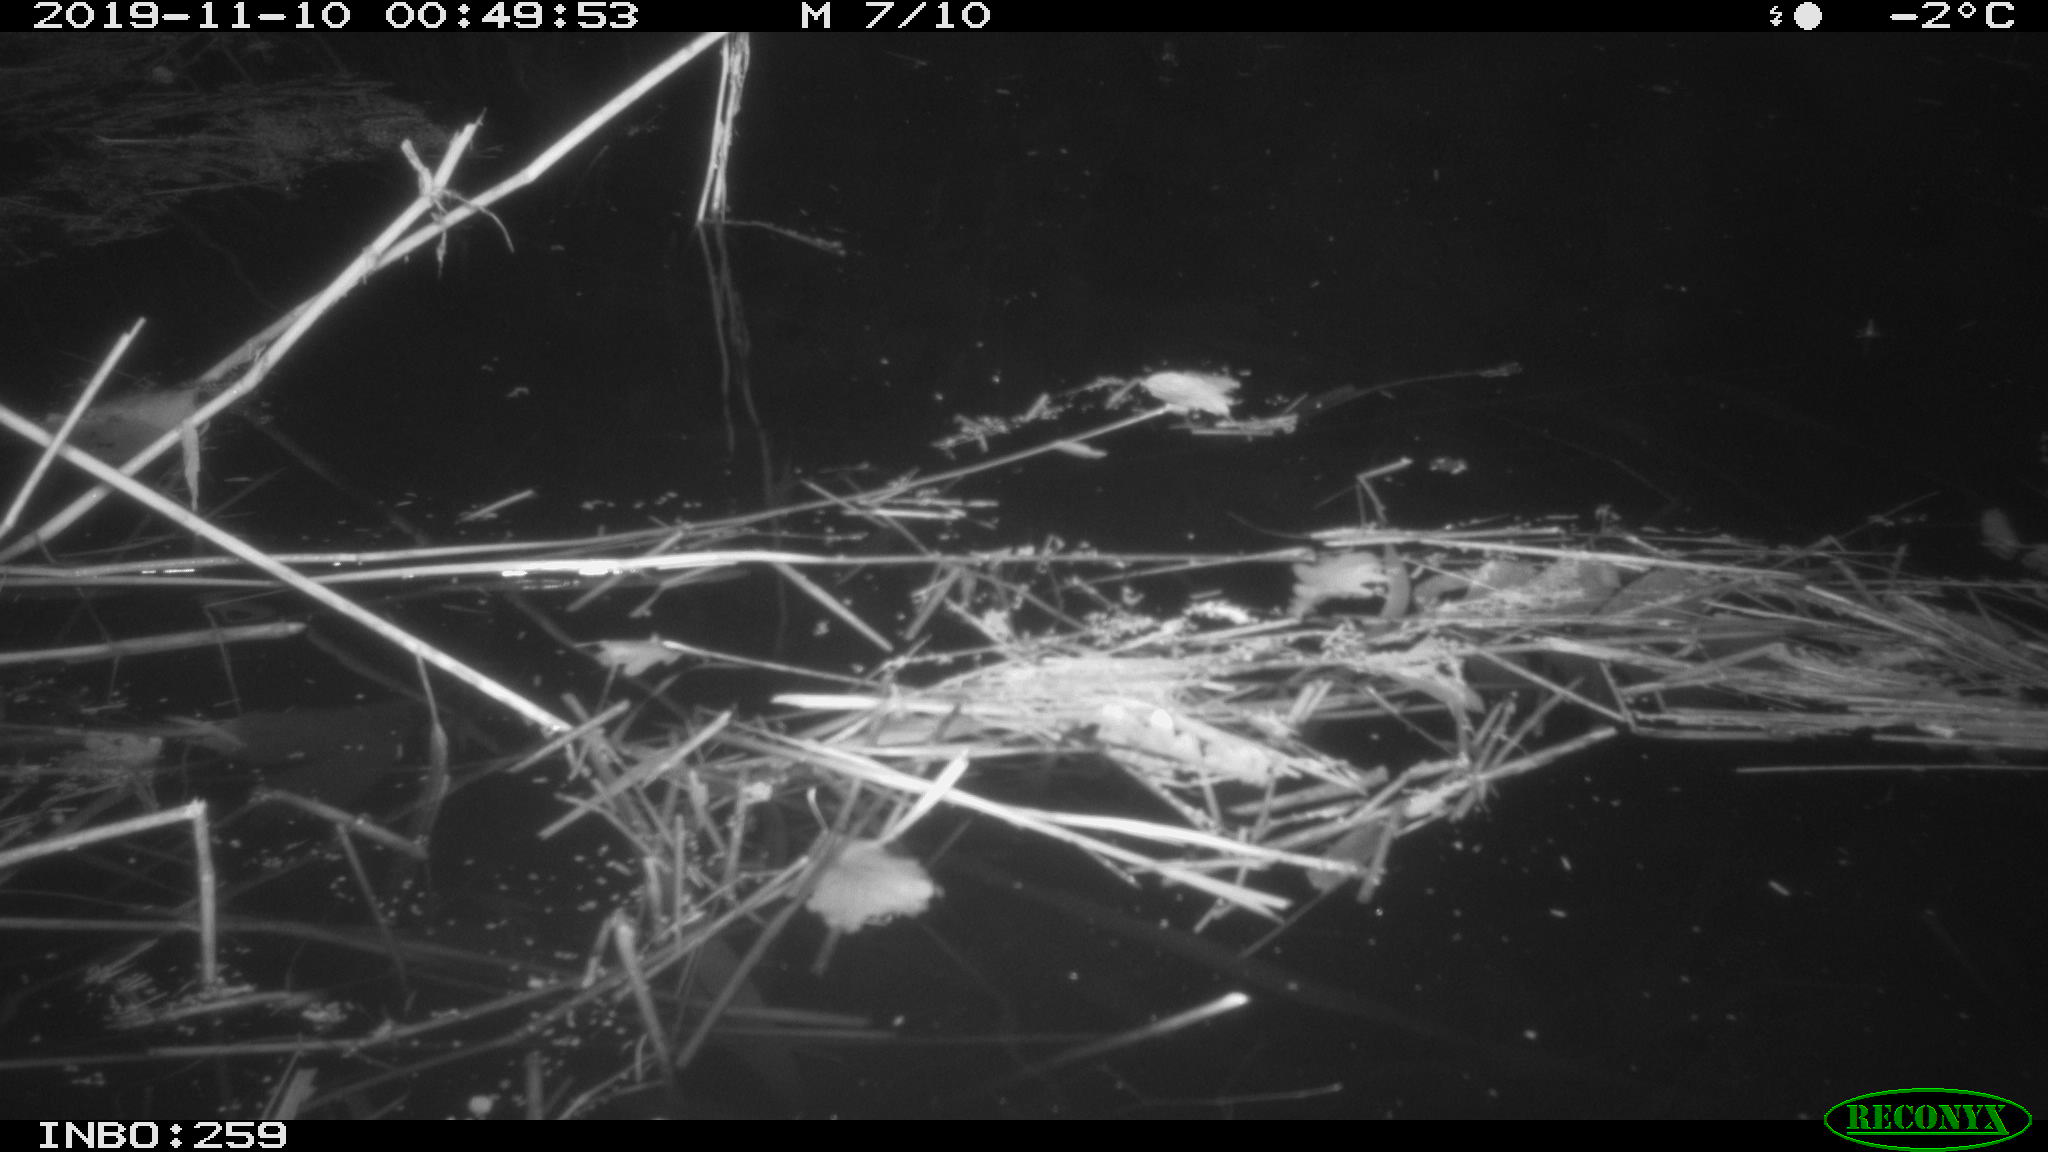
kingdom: Animalia
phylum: Chordata
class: Mammalia
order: Rodentia
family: Muridae
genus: Rattus
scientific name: Rattus norvegicus
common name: Brown rat
